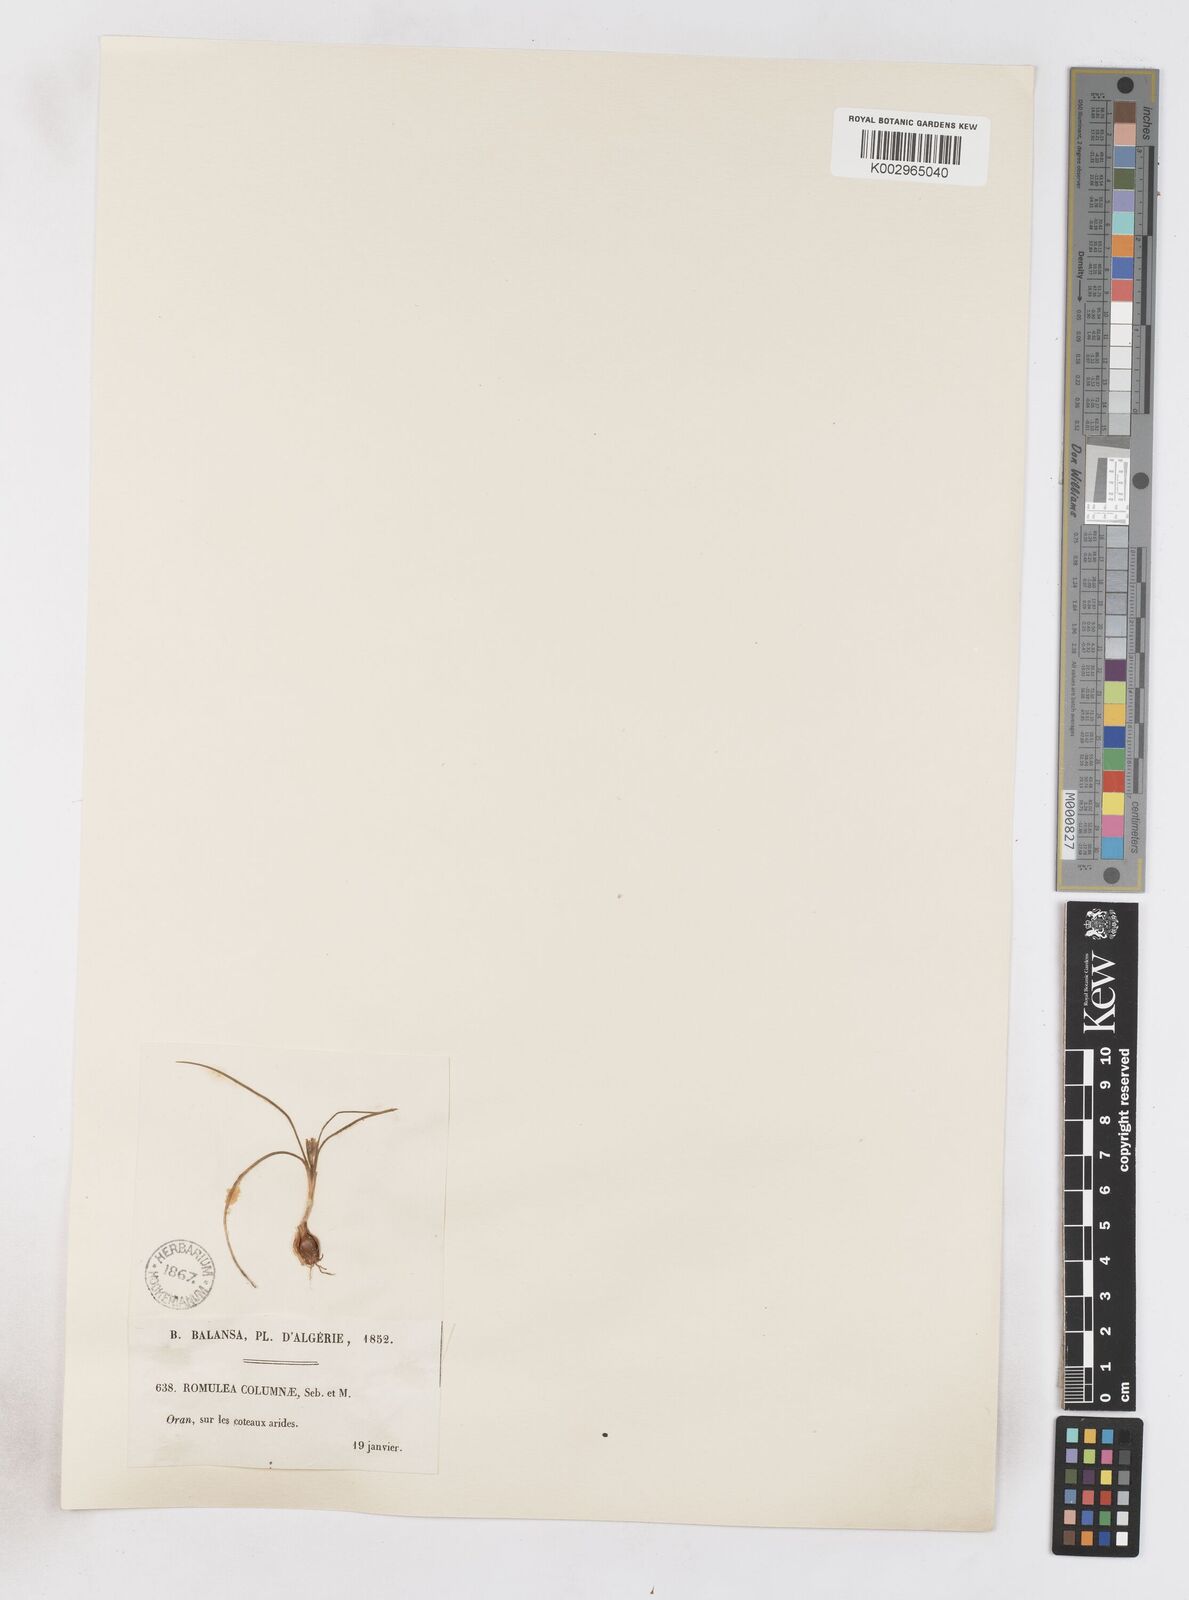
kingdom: Plantae
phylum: Tracheophyta
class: Liliopsida
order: Asparagales
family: Iridaceae
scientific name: Iridaceae
